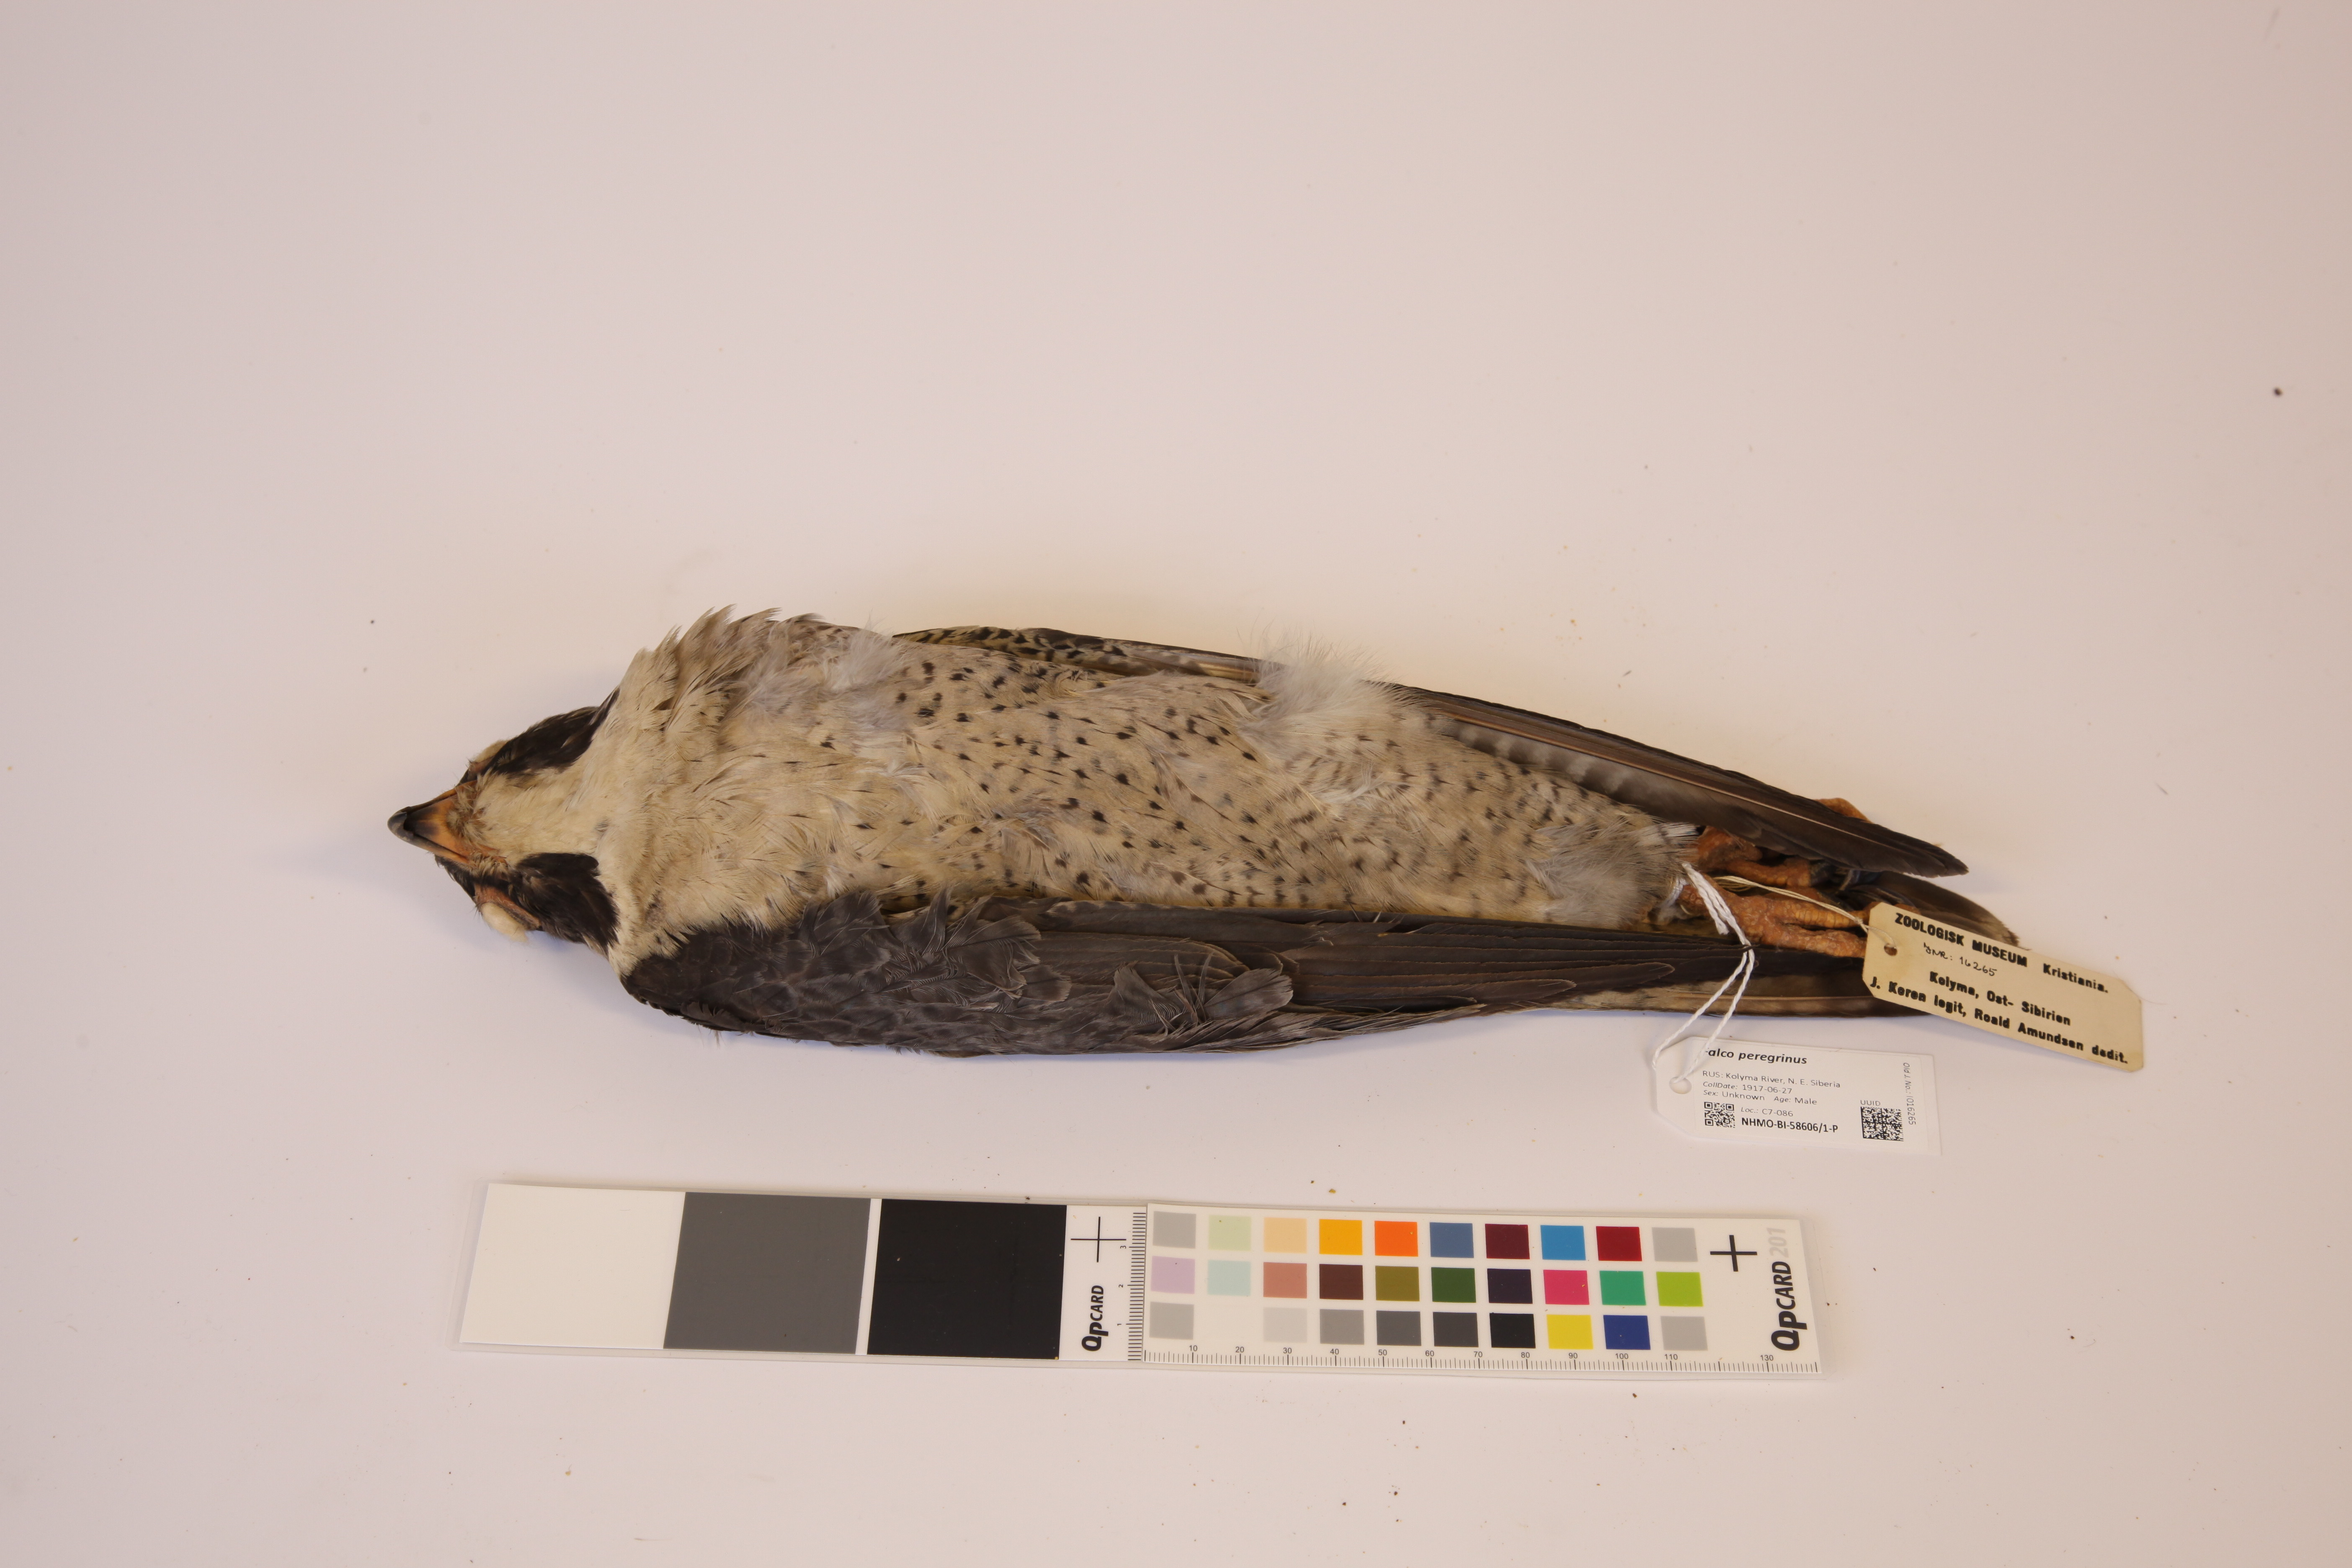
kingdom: Animalia
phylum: Chordata
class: Aves
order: Falconiformes
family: Falconidae
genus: Falco
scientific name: Falco peregrinus
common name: Peregrine falcon
